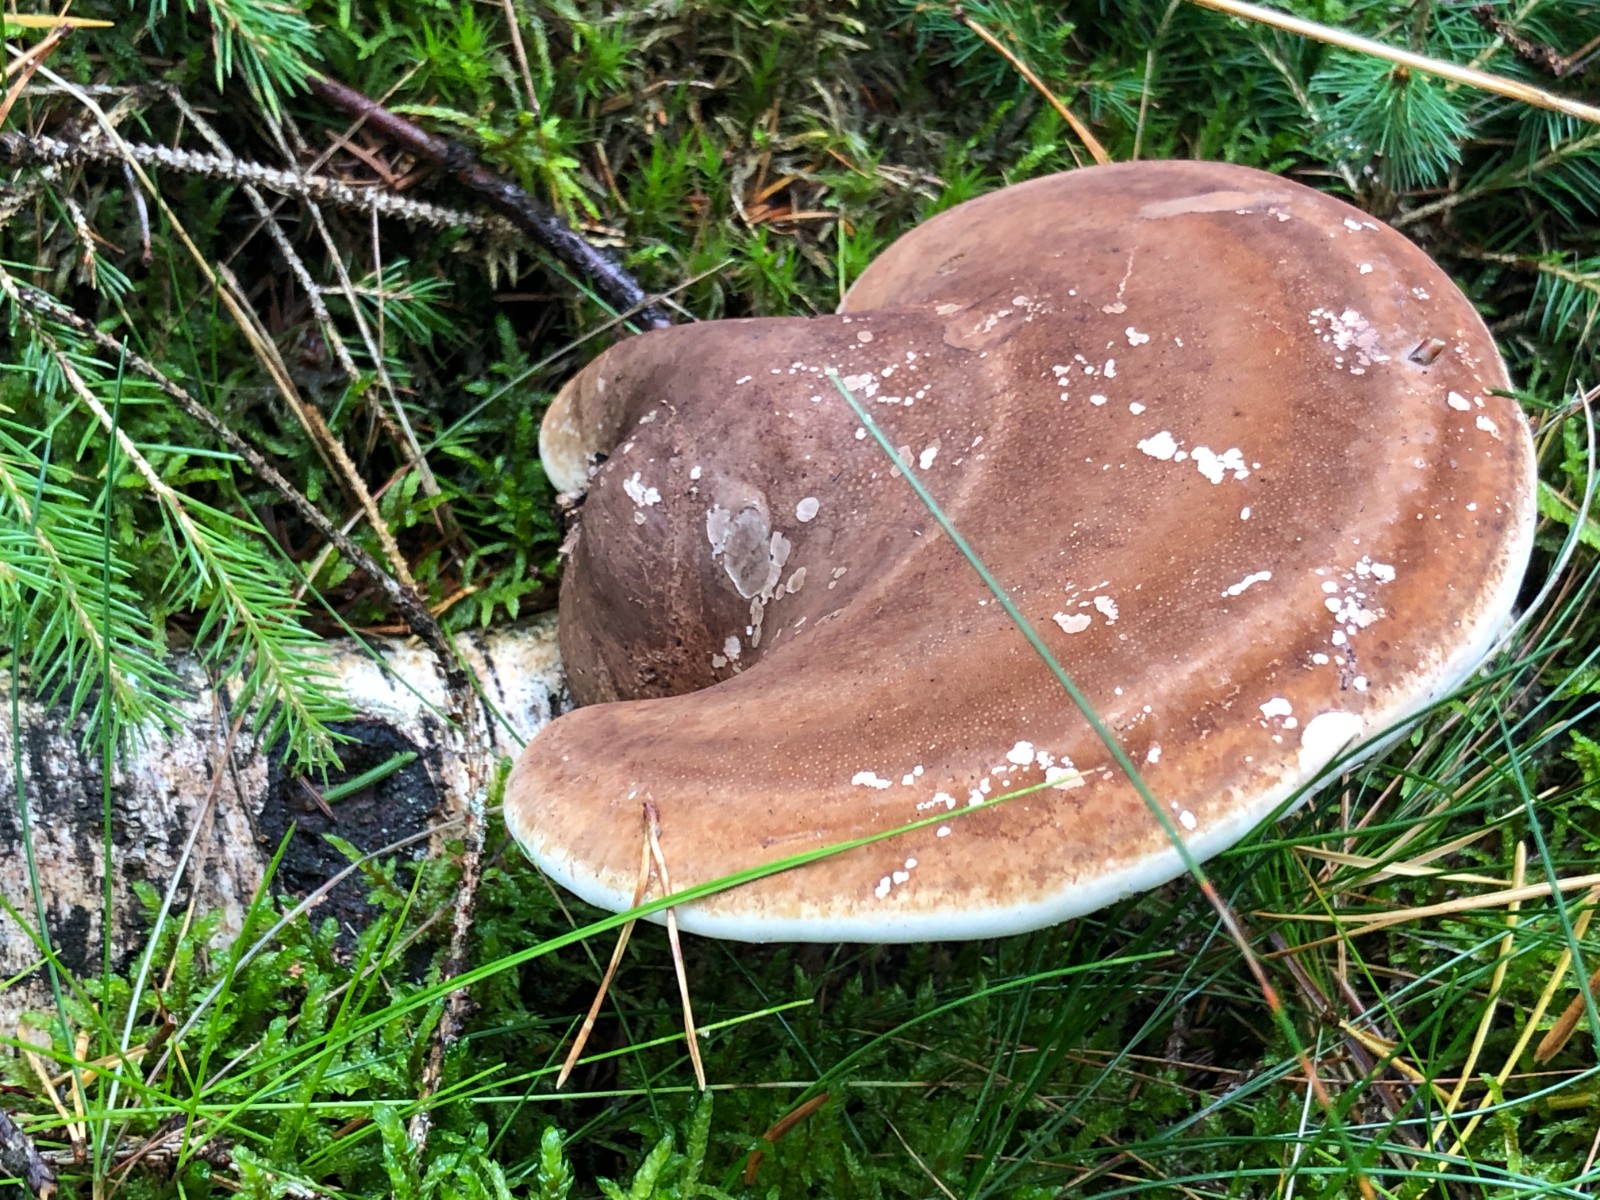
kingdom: Fungi
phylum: Basidiomycota
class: Agaricomycetes
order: Polyporales
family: Fomitopsidaceae
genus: Fomitopsis
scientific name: Fomitopsis betulina
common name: birkeporesvamp
